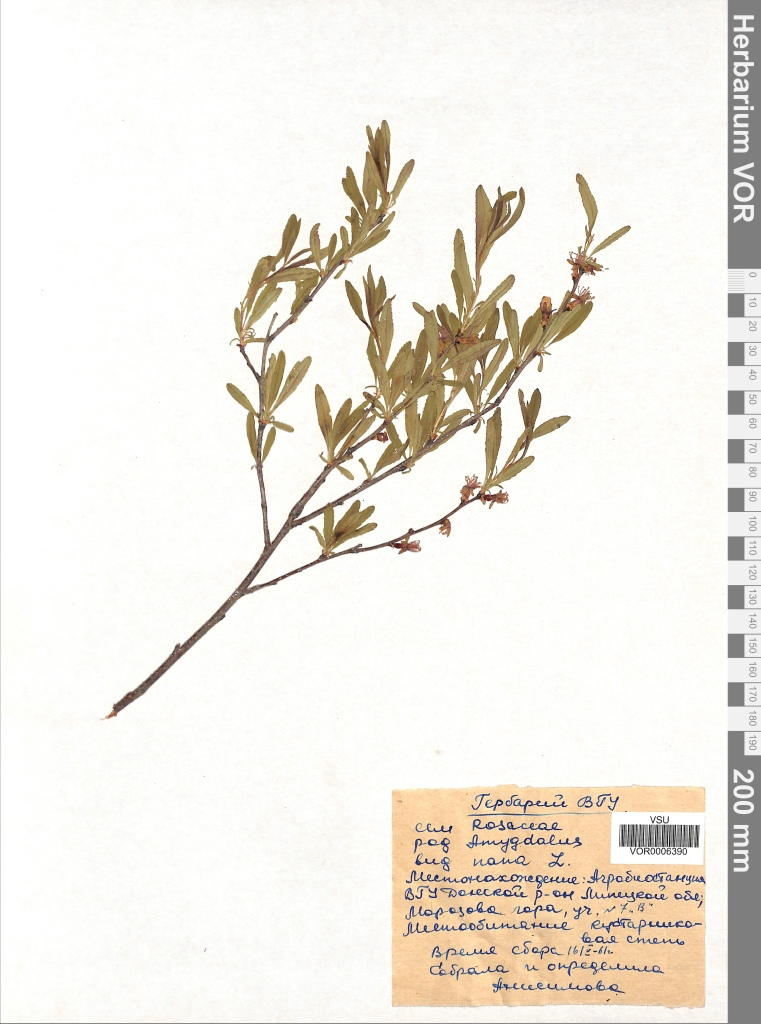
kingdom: Plantae
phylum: Tracheophyta
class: Magnoliopsida
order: Rosales
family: Rosaceae
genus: Prunus
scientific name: Prunus tenella
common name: Dwarf russian almond
